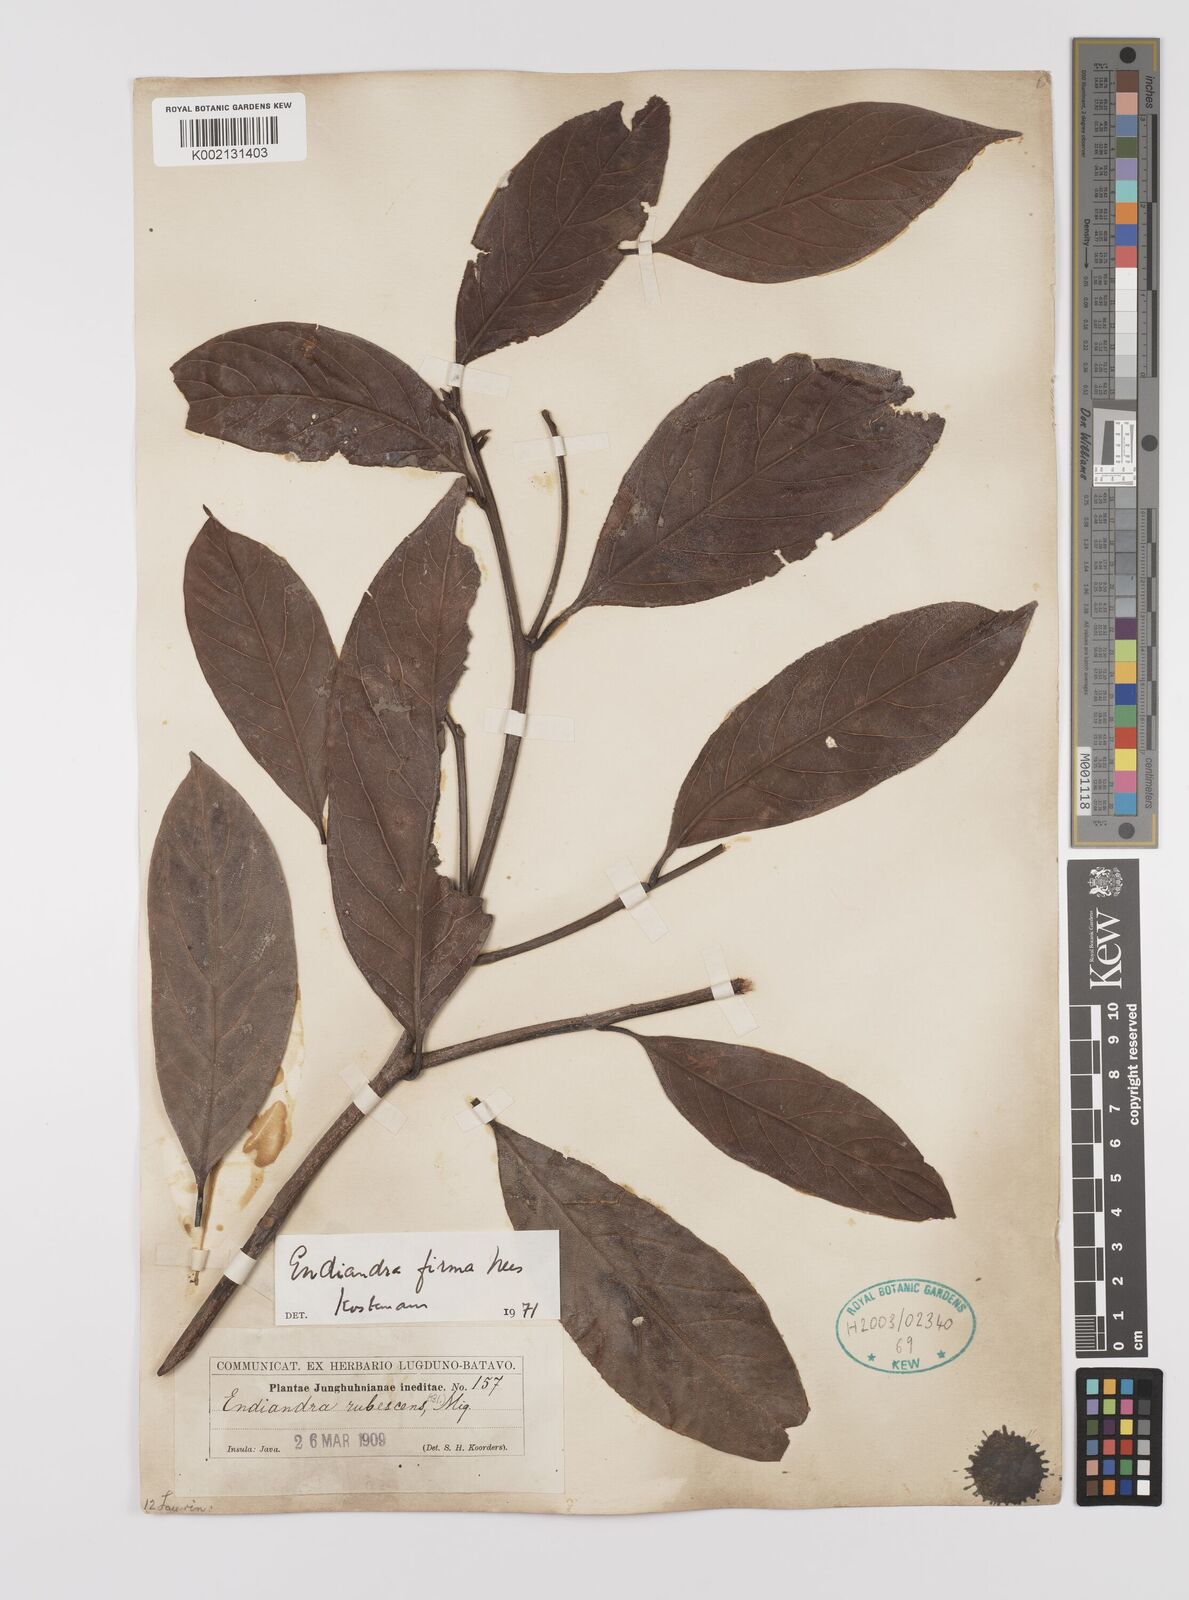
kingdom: Plantae
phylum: Tracheophyta
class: Magnoliopsida
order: Laurales
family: Lauraceae
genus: Endiandra
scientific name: Endiandra firma
